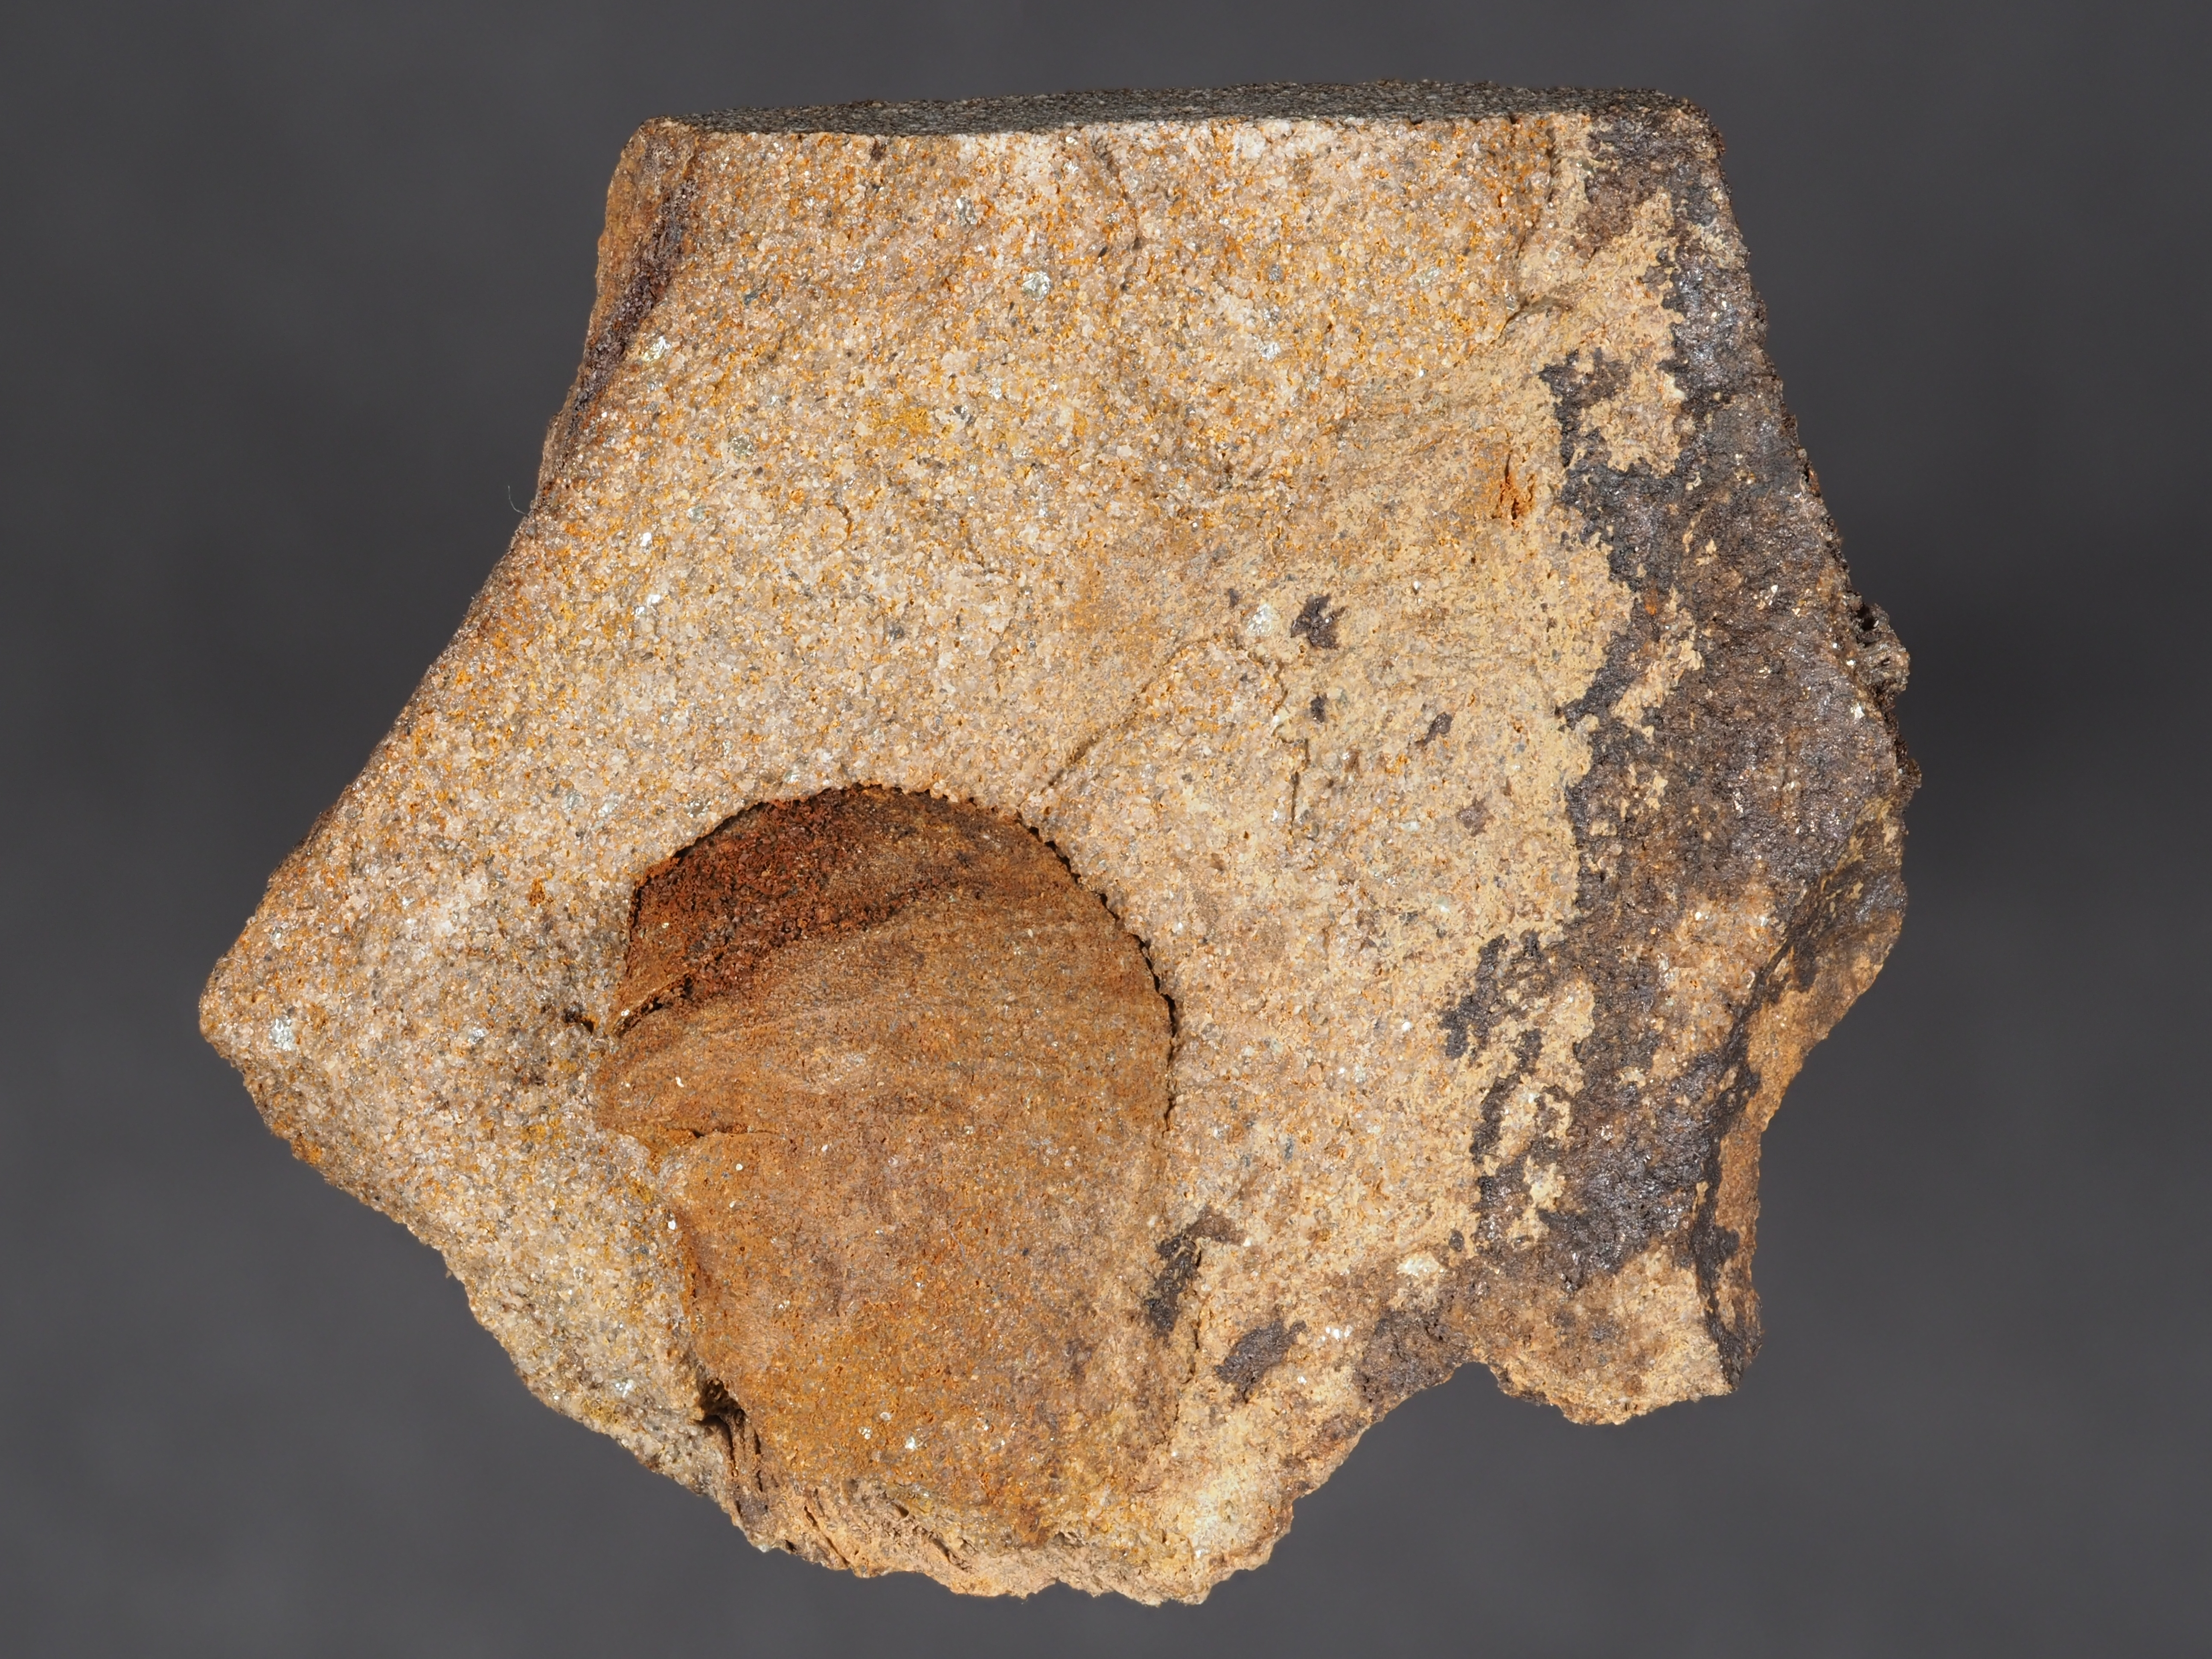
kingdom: Animalia
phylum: Mollusca
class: Bivalvia
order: Nuculanida
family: Malletiidae
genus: Palaeoneilo
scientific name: Palaeoneilo
